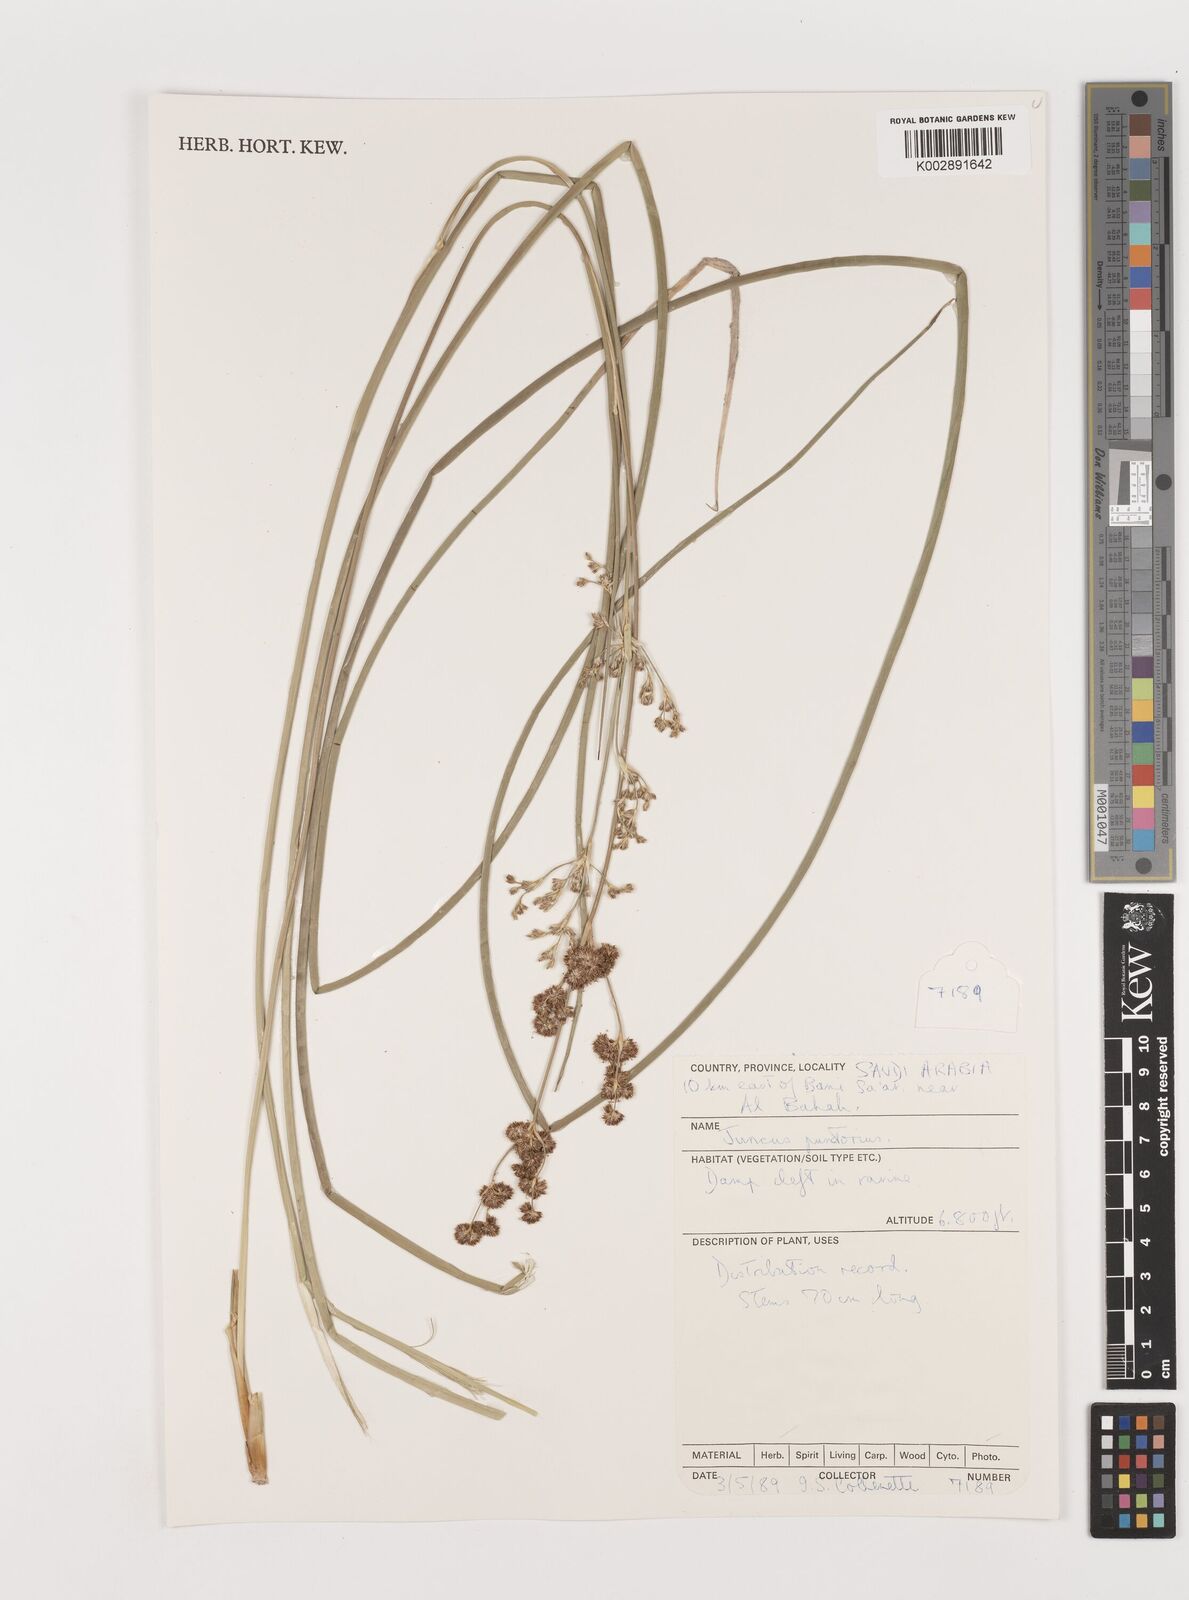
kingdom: Plantae
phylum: Tracheophyta
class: Liliopsida
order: Poales
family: Juncaceae
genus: Juncus
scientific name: Juncus punctorius
